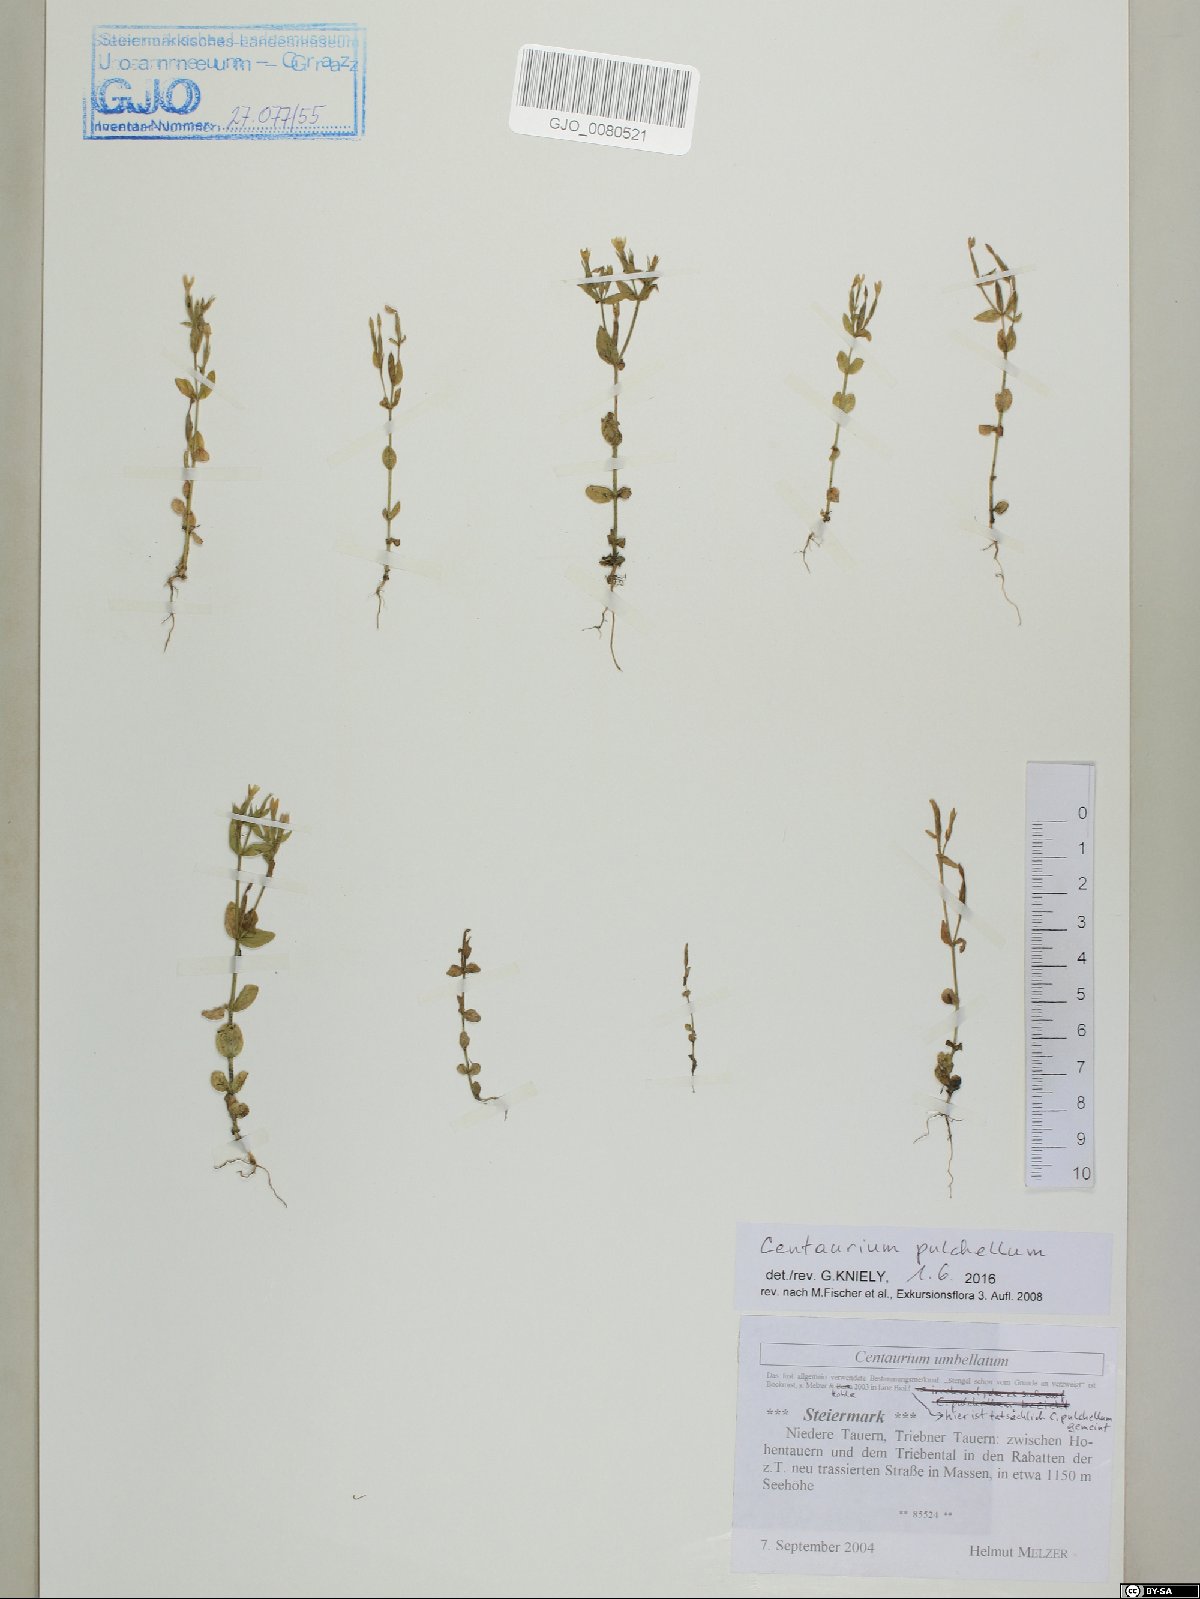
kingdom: Plantae
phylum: Tracheophyta
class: Magnoliopsida
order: Gentianales
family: Gentianaceae
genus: Centaurium
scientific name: Centaurium pulchellum
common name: Lesser centaury
